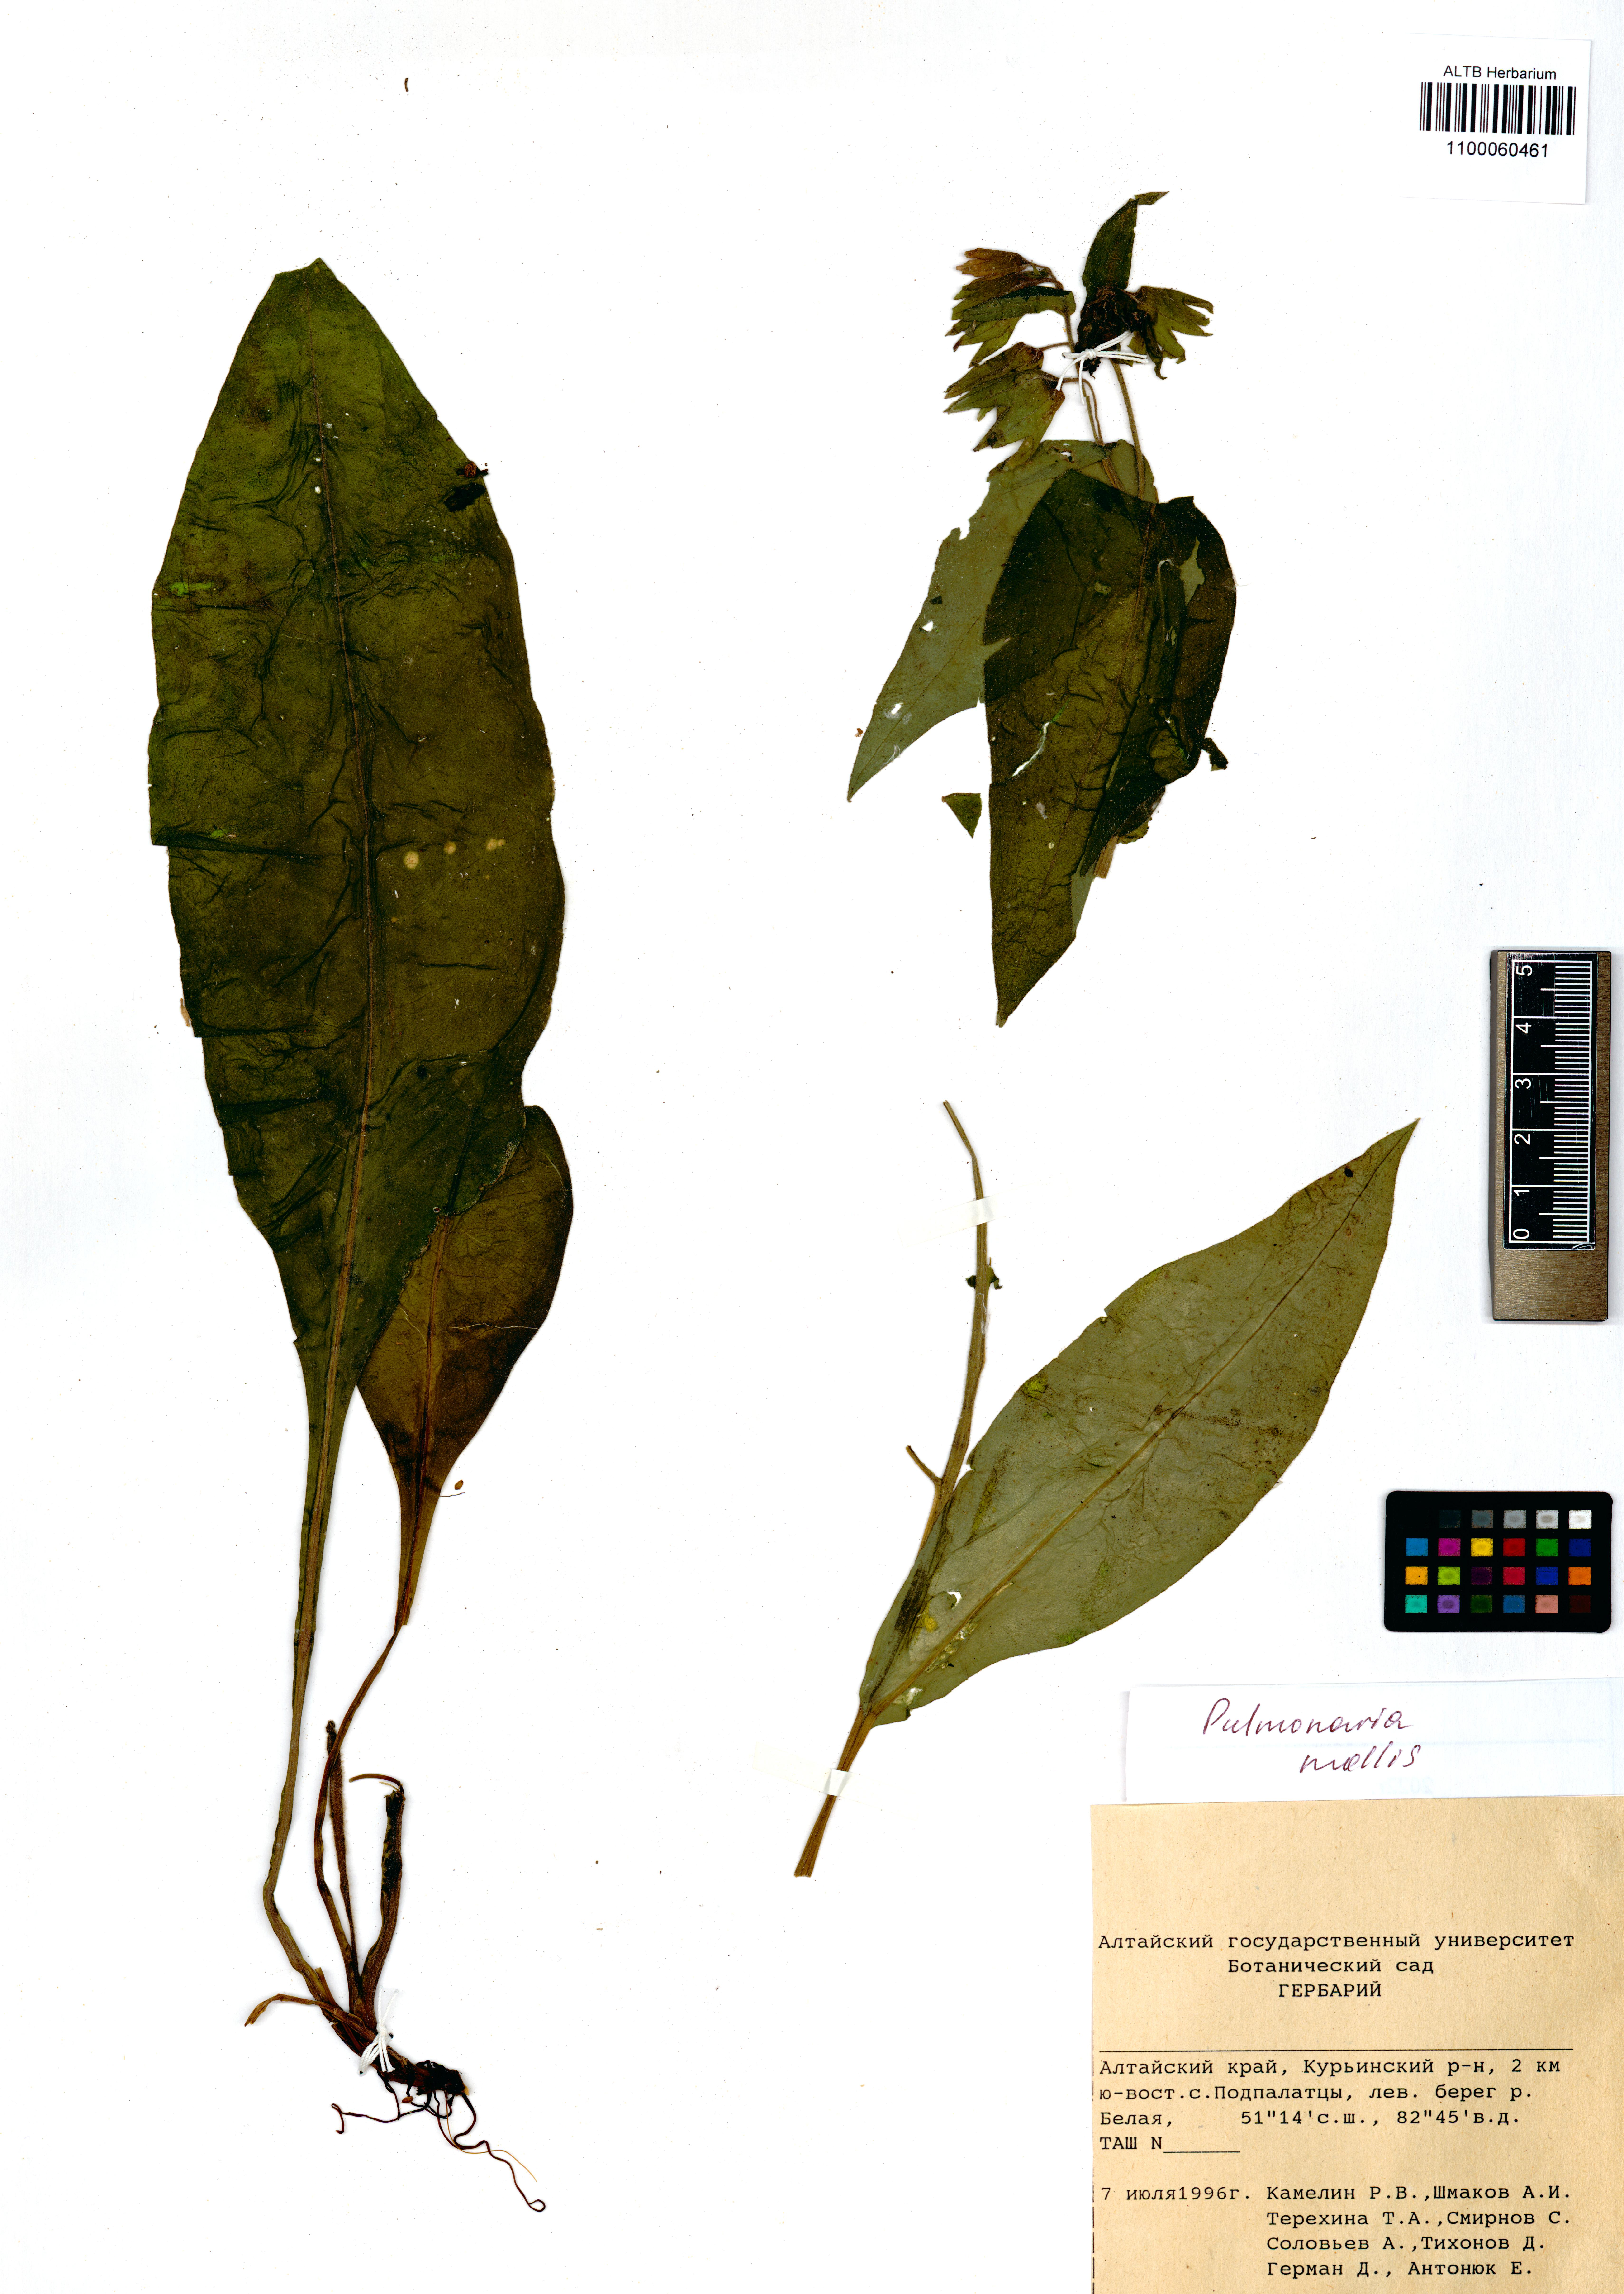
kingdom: Plantae
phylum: Tracheophyta
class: Magnoliopsida
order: Boraginales
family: Boraginaceae
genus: Pulmonaria
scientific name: Pulmonaria mollis
